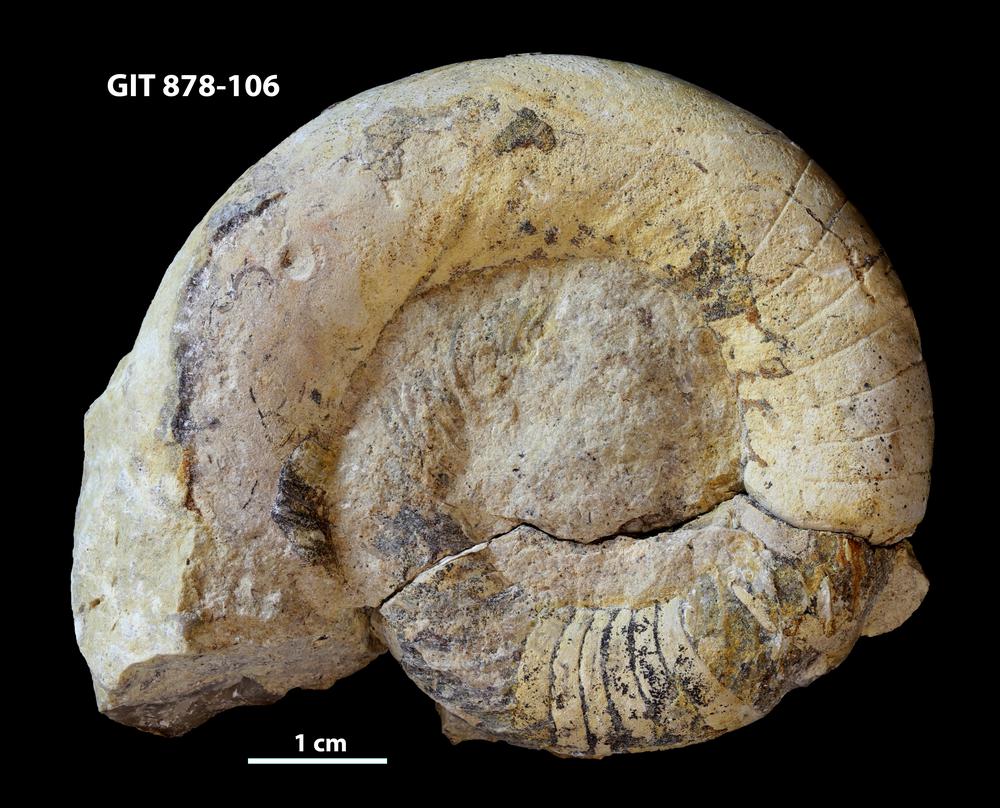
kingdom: Animalia
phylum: Mollusca
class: Cephalopoda
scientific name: Cephalopoda
